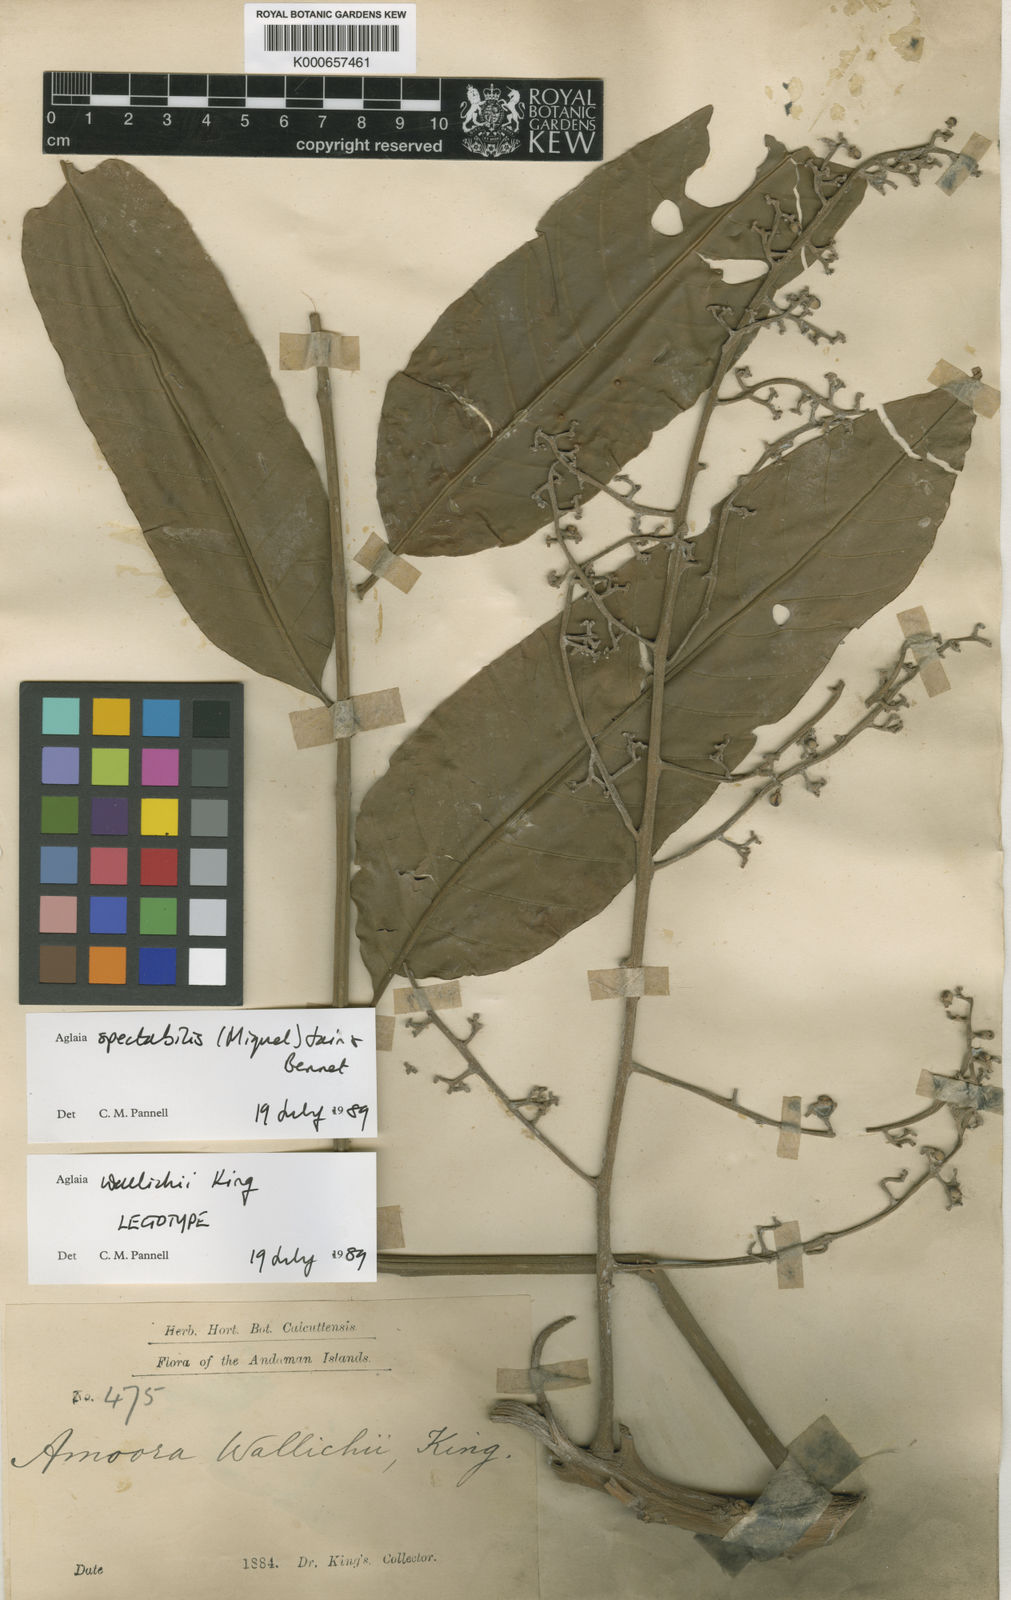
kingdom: Plantae
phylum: Tracheophyta
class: Magnoliopsida
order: Sapindales
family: Meliaceae
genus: Aglaia
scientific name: Aglaia spectabilis
